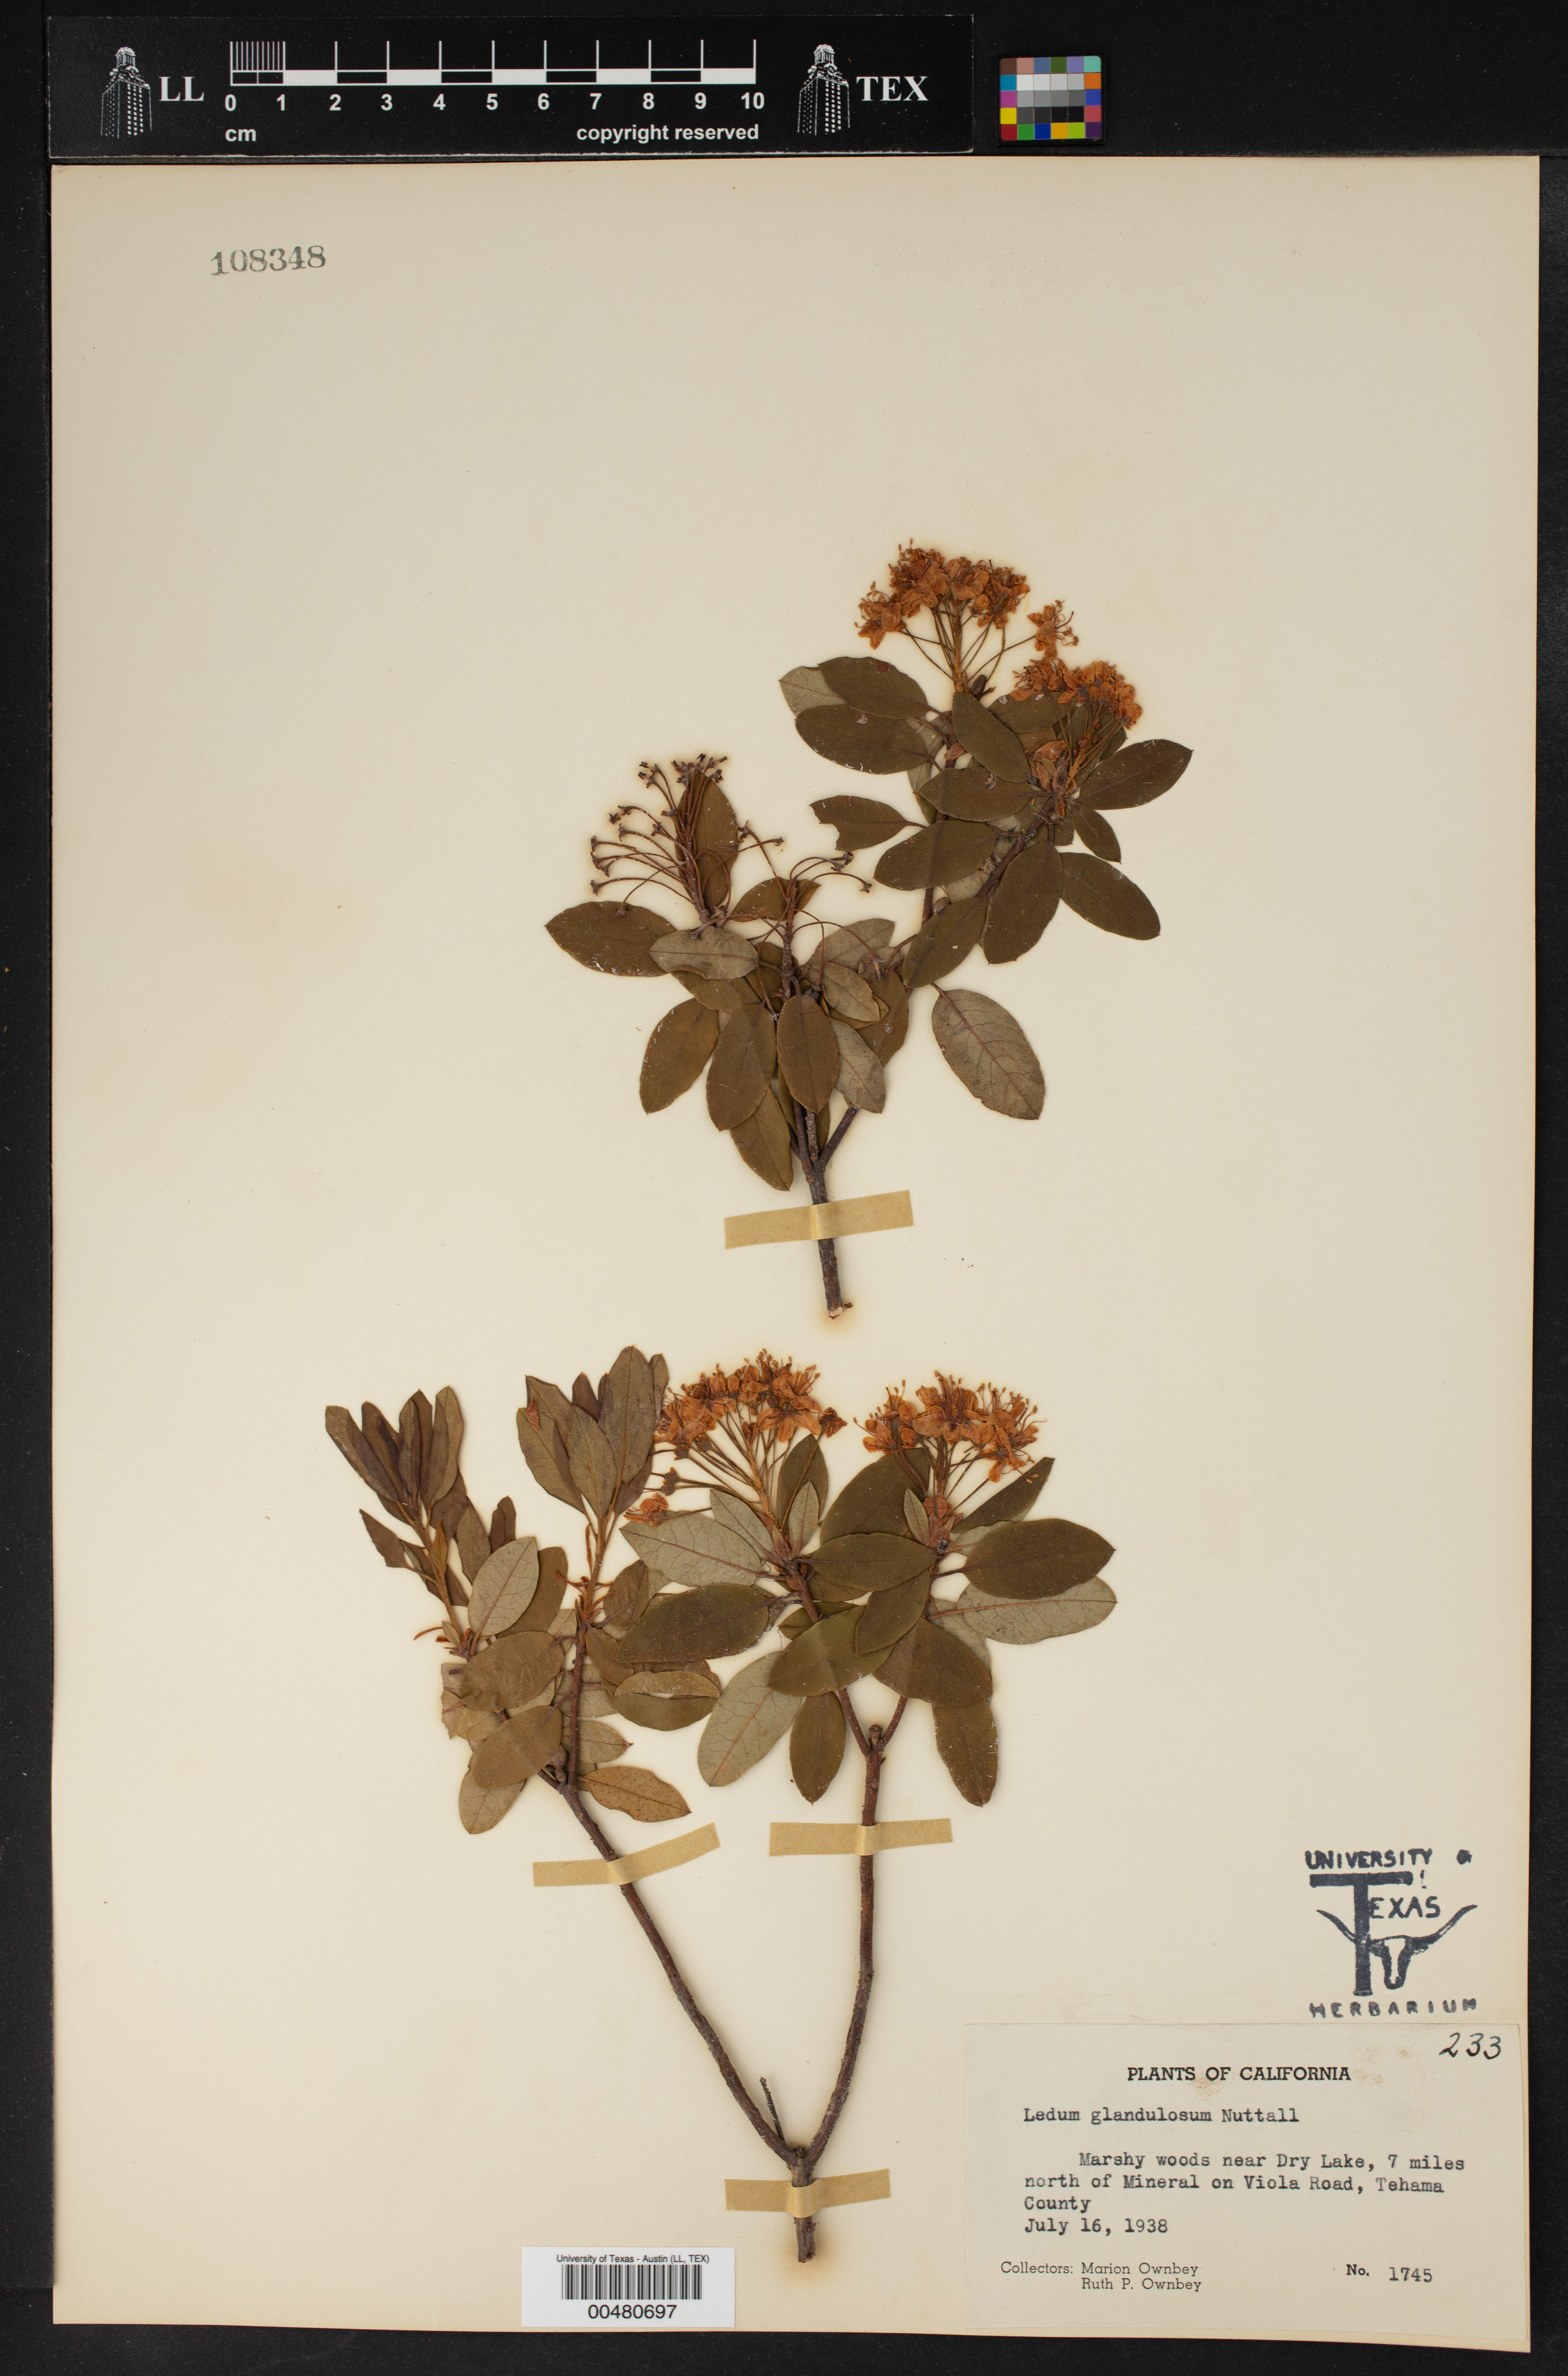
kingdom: Plantae
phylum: Tracheophyta
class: Magnoliopsida
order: Ericales
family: Ericaceae
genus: Rhododendron
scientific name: Rhododendron columbianum
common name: Western labrador tea
